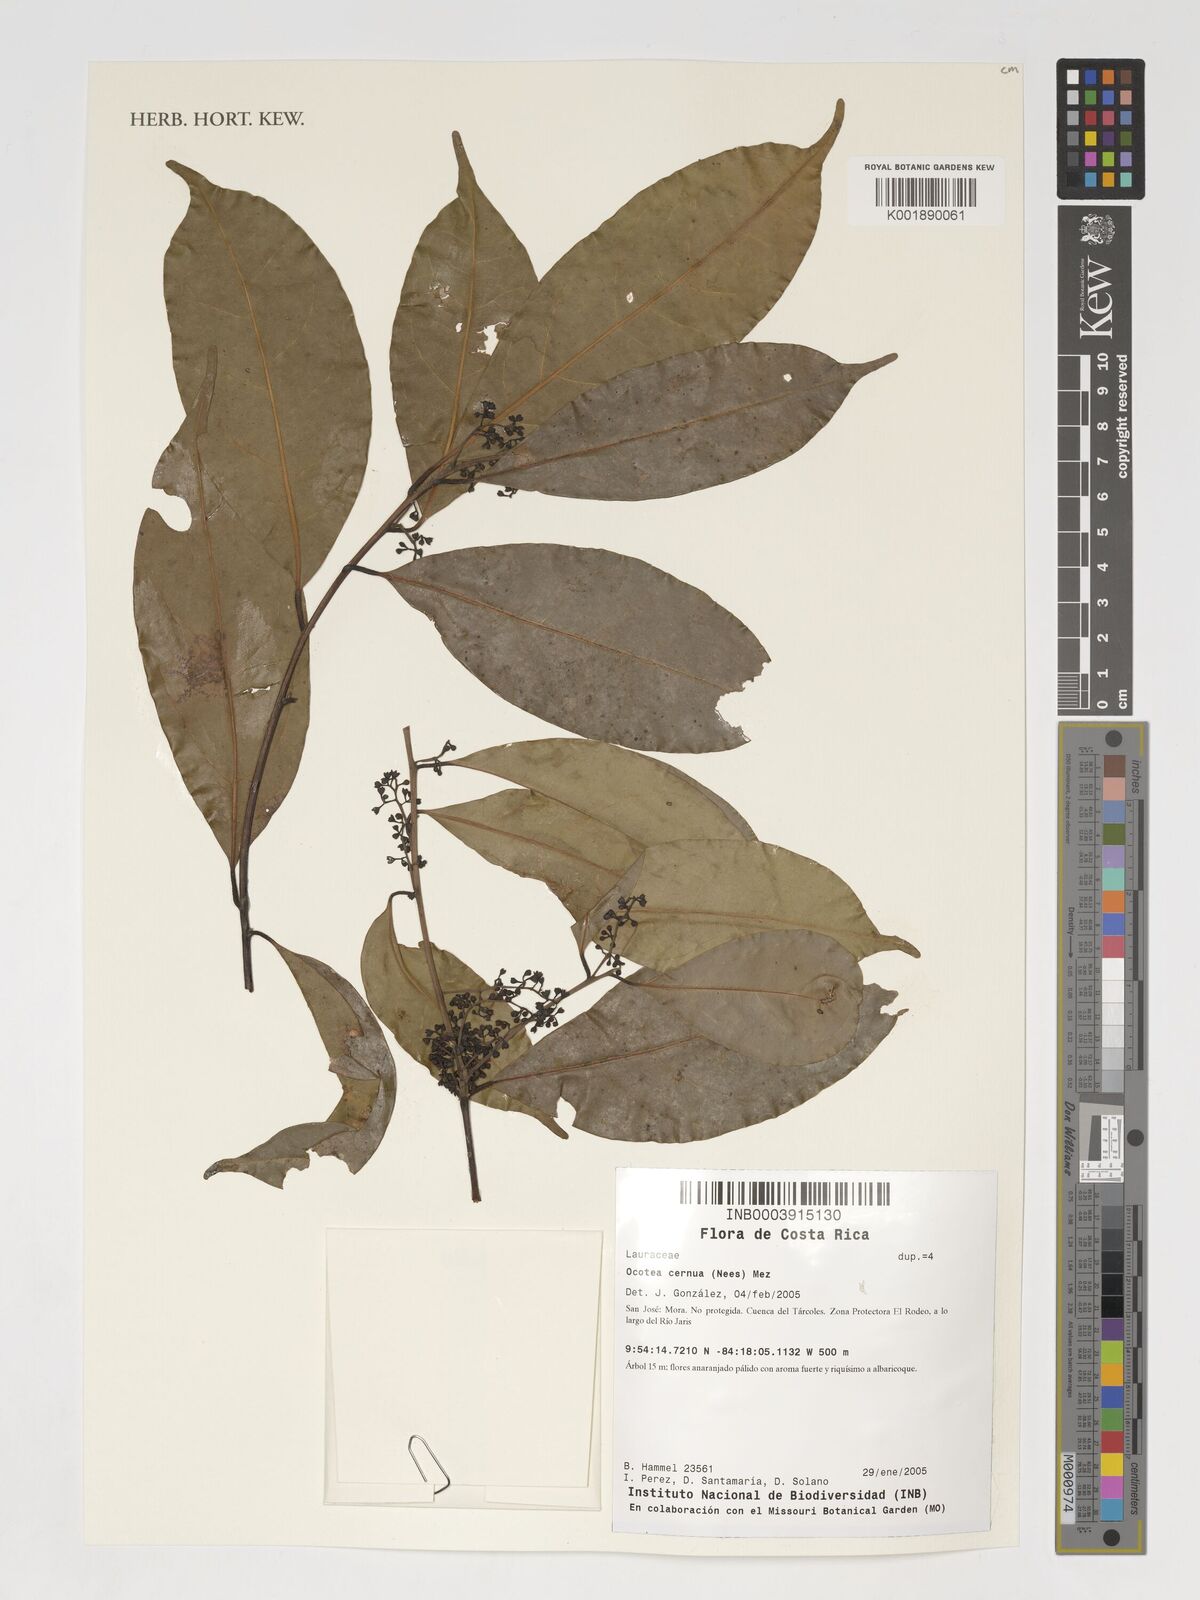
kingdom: Plantae
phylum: Tracheophyta
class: Magnoliopsida
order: Laurales
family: Lauraceae
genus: Ocotea
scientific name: Ocotea leptobotra
